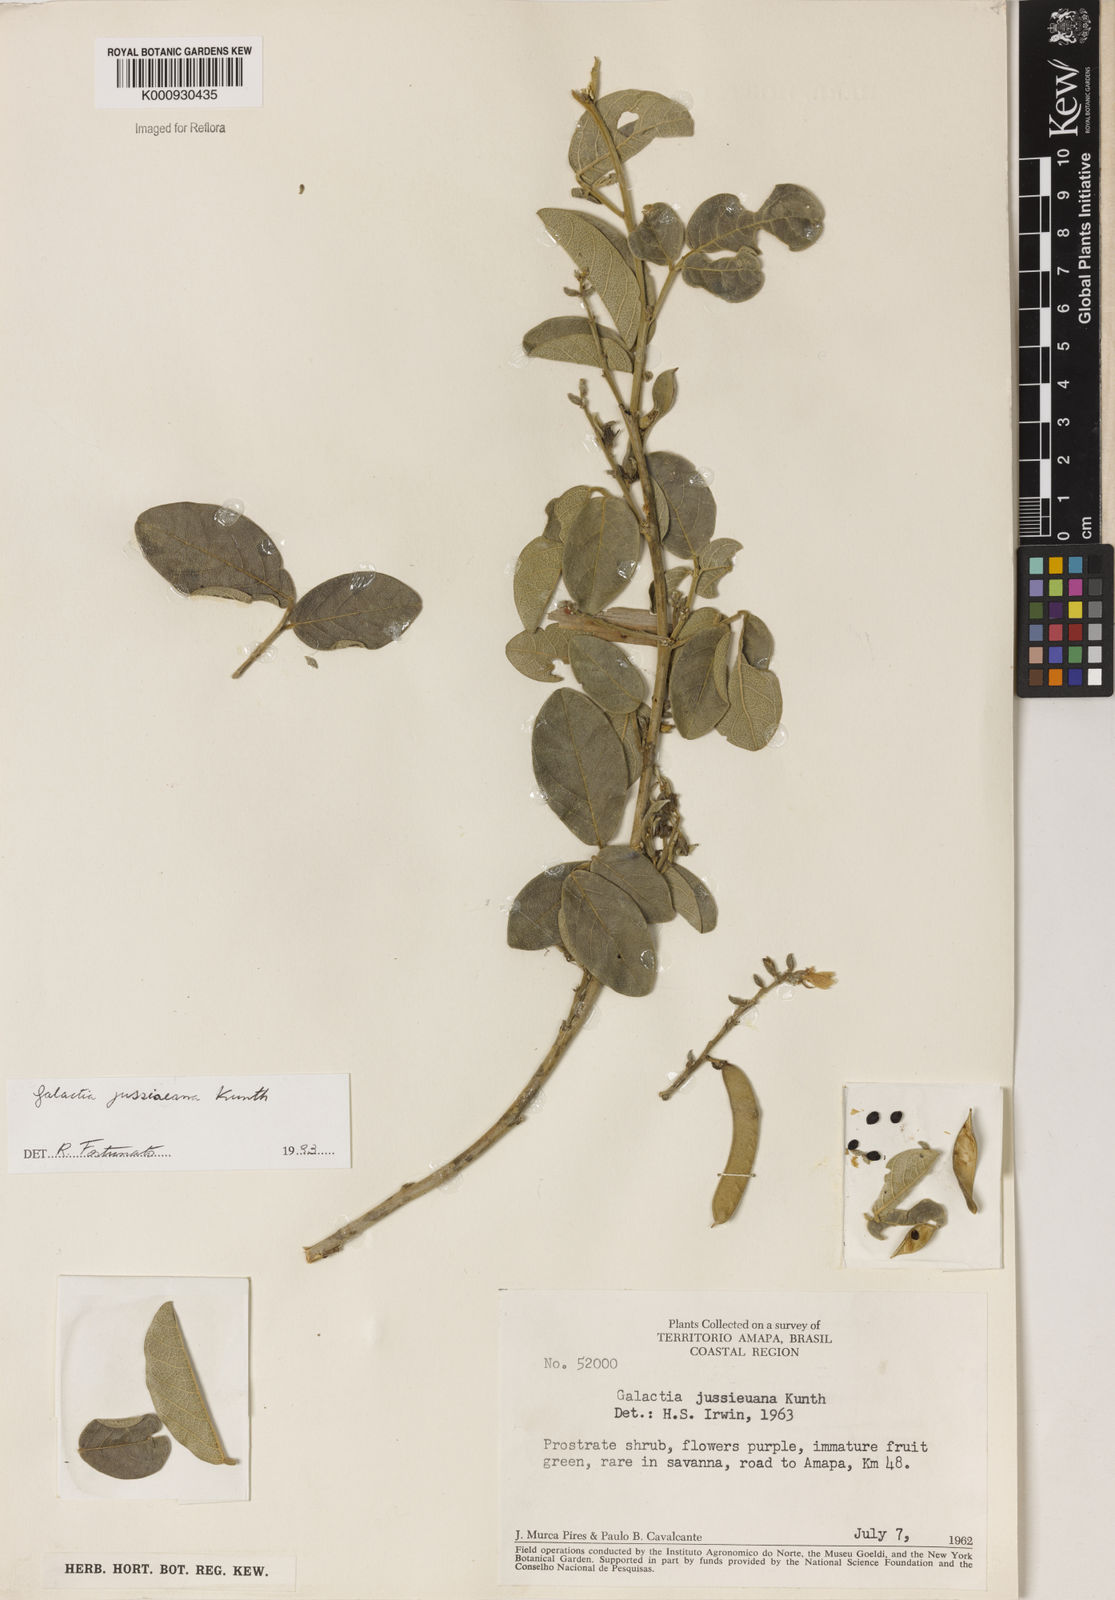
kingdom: Plantae
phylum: Tracheophyta
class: Magnoliopsida
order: Fabales
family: Fabaceae
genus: Galactia
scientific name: Galactia jussiaeana
